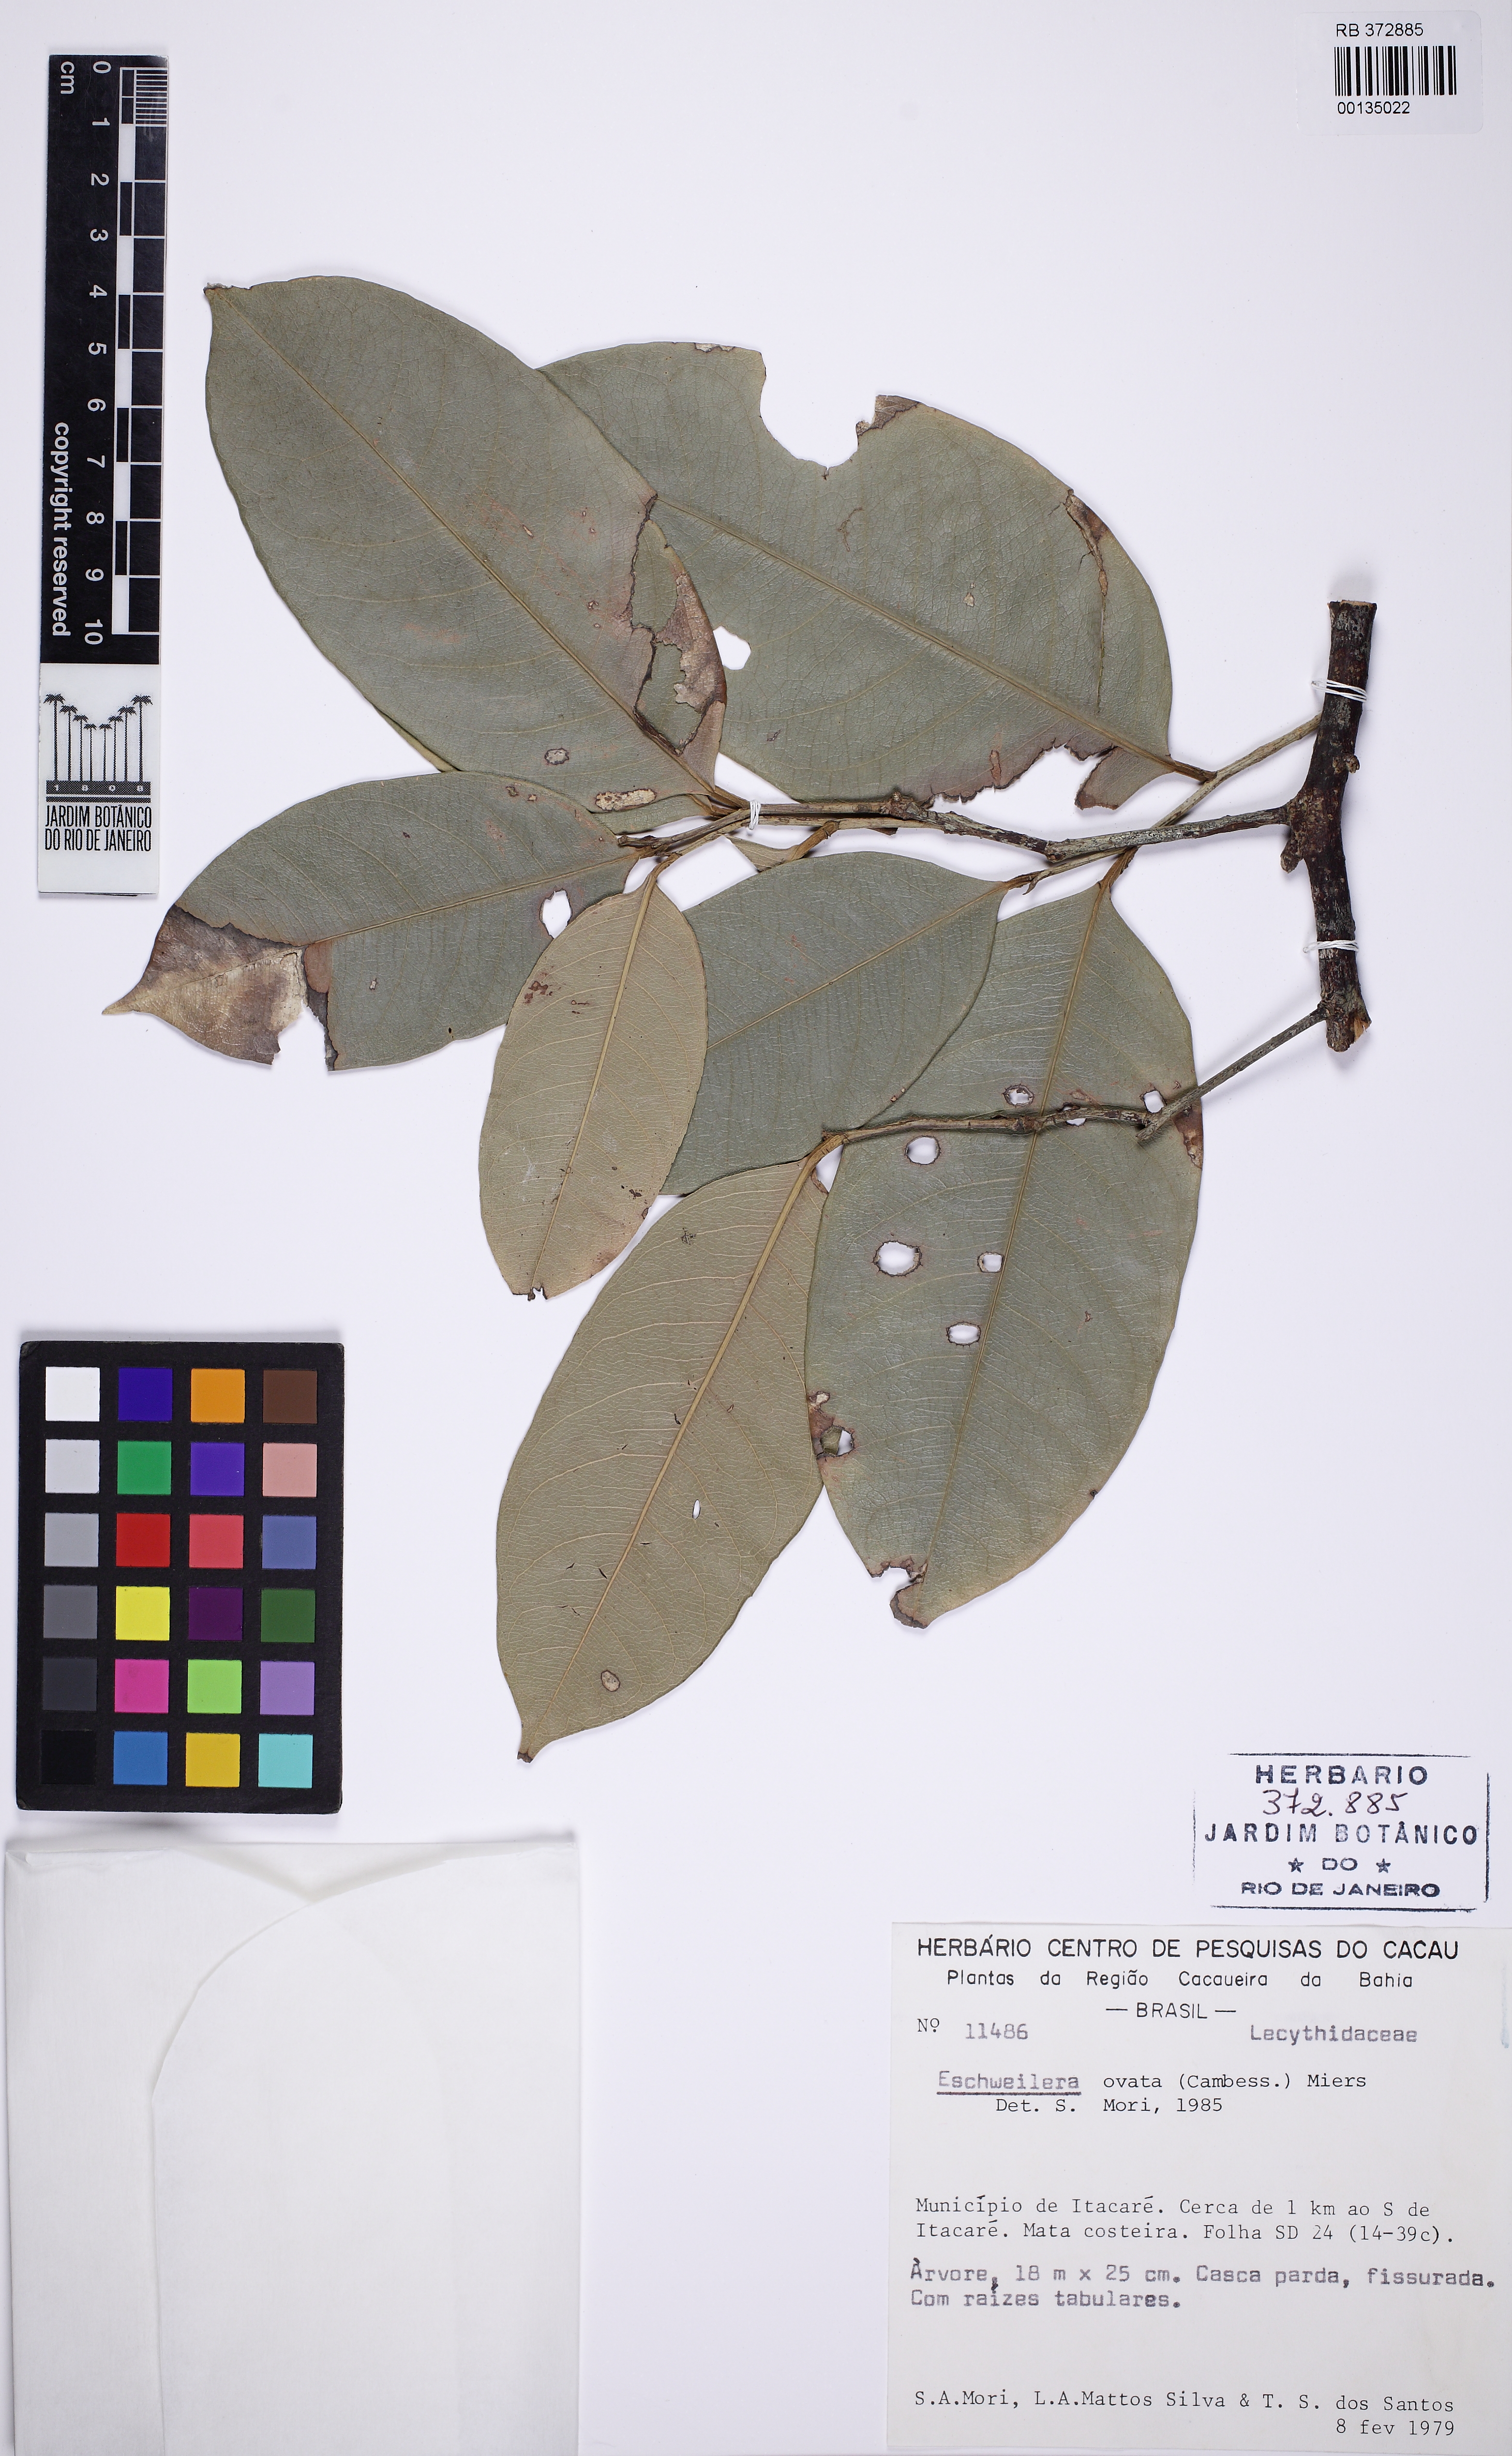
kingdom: Plantae
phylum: Tracheophyta
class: Magnoliopsida
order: Ericales
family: Lecythidaceae
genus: Eschweilera
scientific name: Eschweilera ovata
